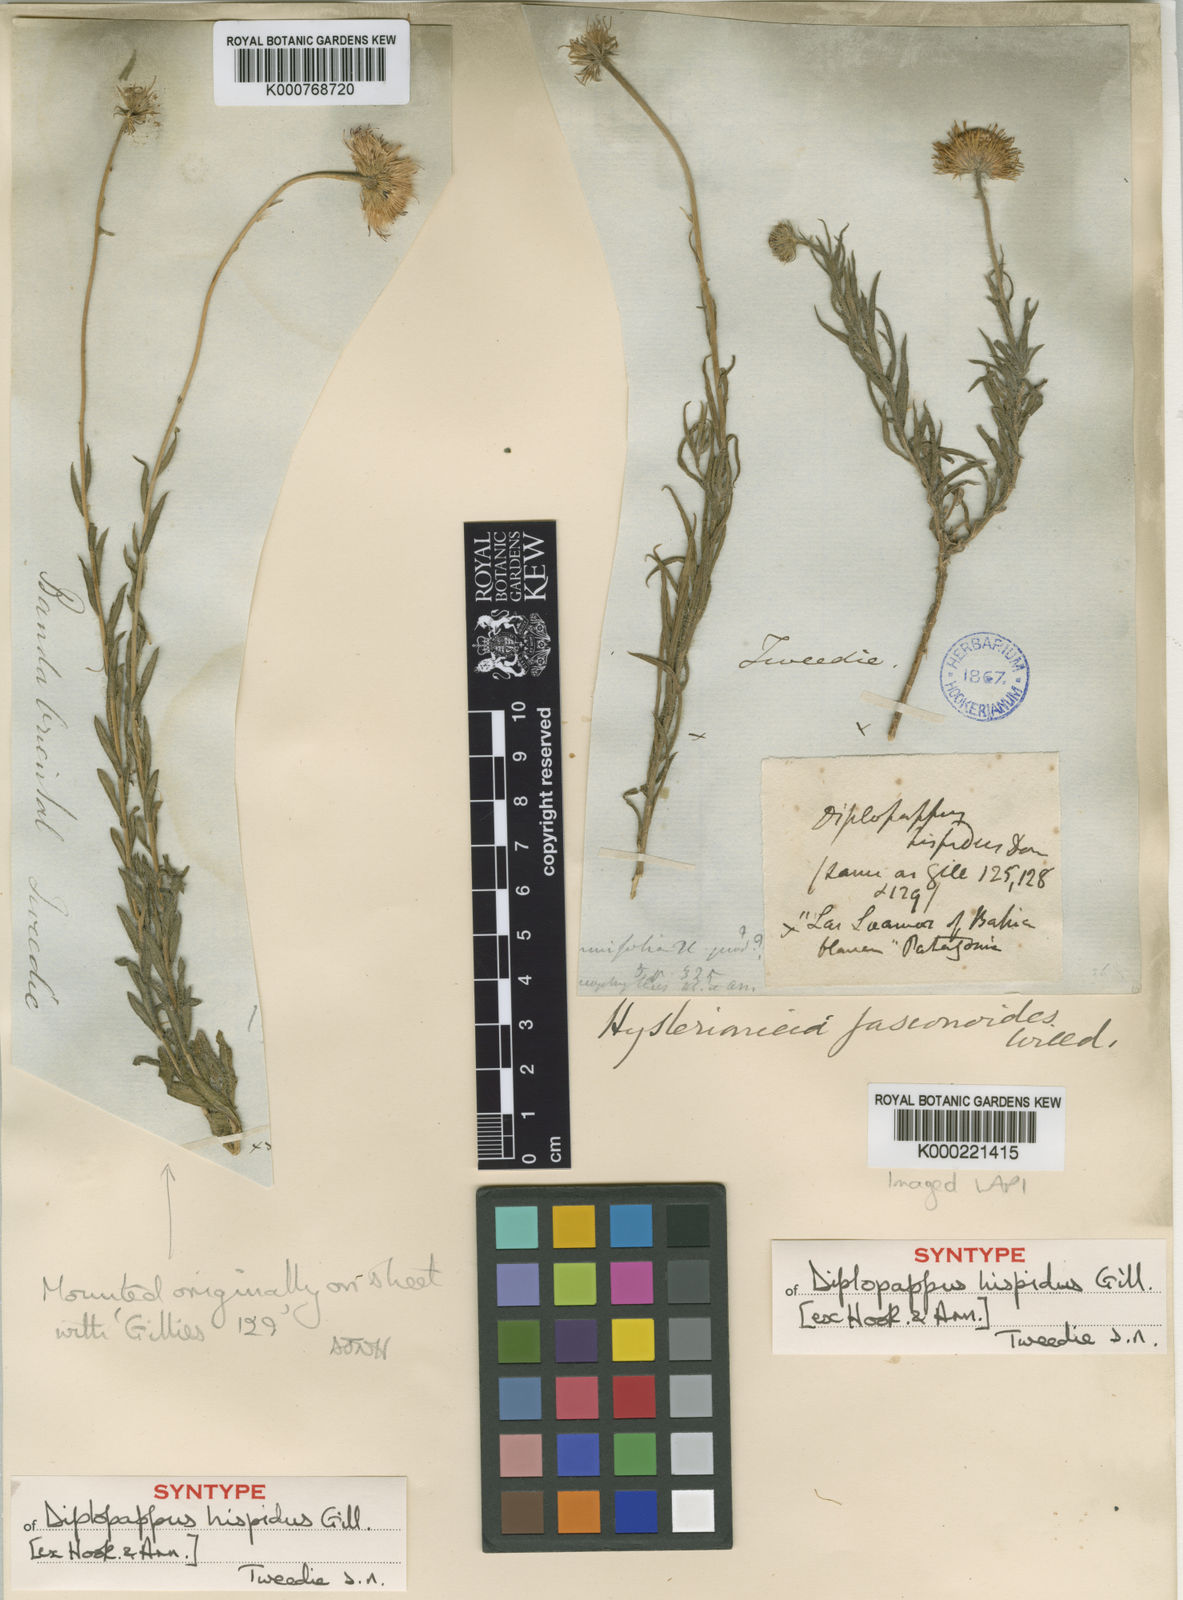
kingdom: Plantae
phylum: Tracheophyta
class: Magnoliopsida
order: Asterales
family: Asteraceae
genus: Hysterionica
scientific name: Hysterionica jasionoides
